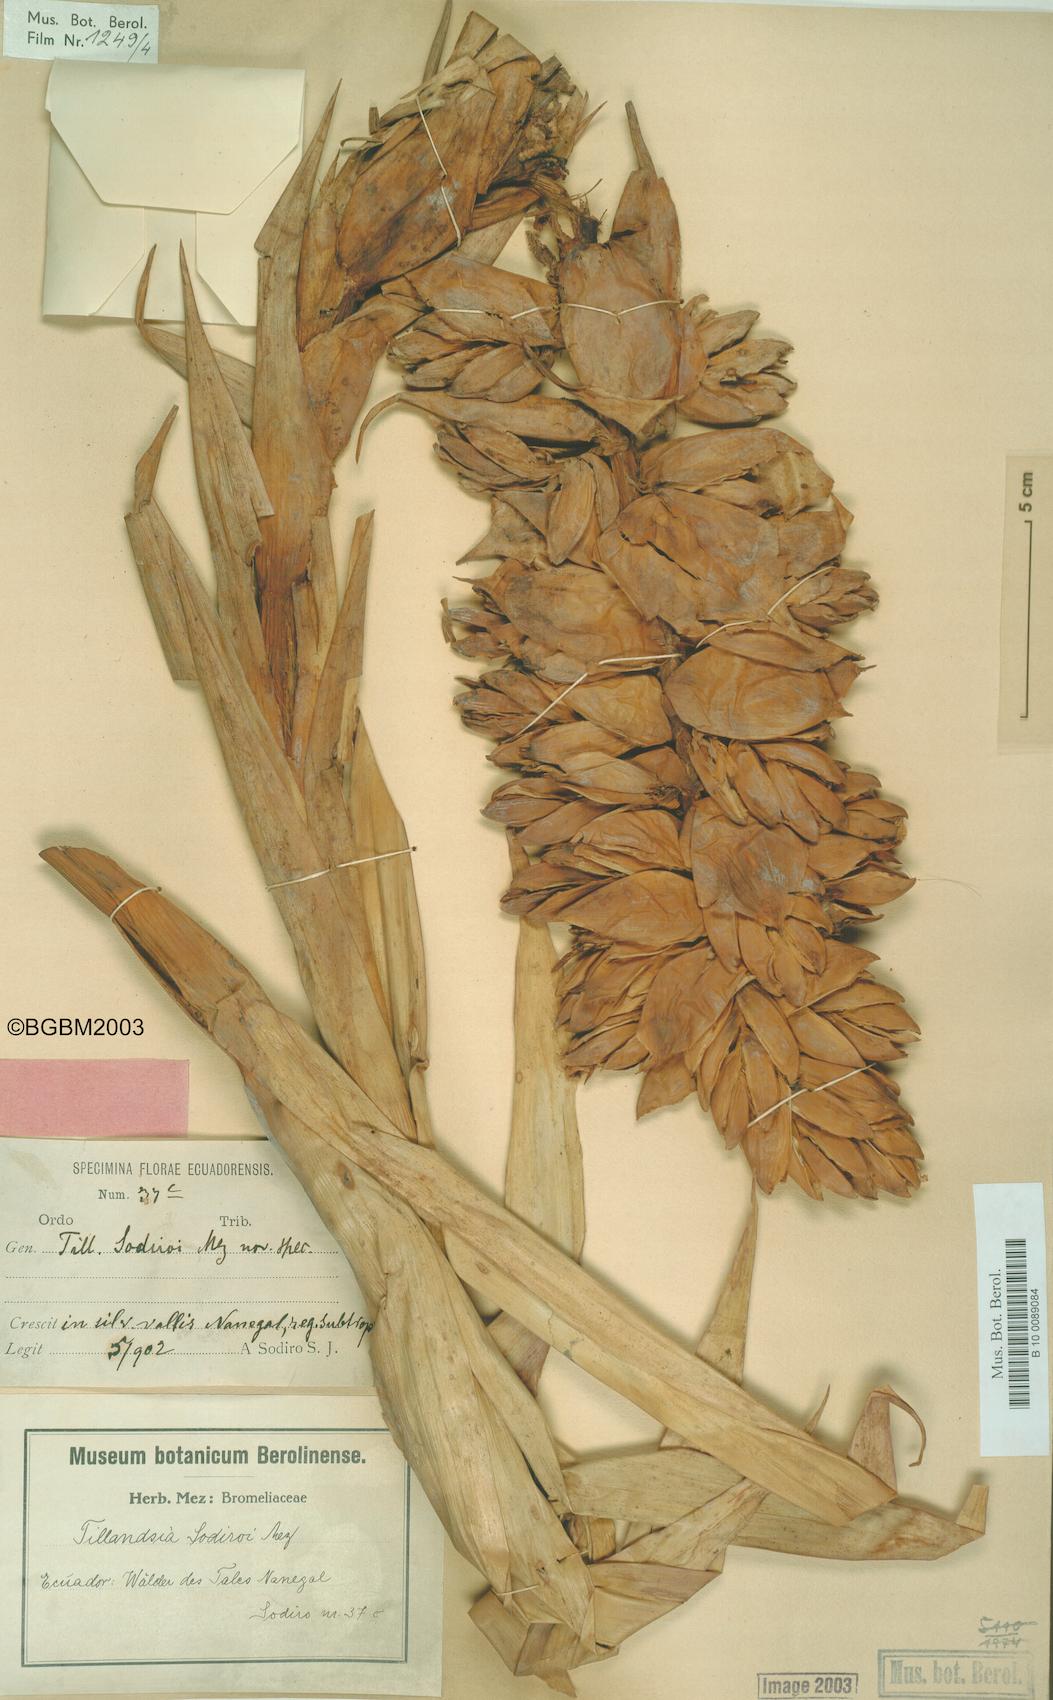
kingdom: Plantae
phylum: Tracheophyta
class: Liliopsida
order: Poales
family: Bromeliaceae
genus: Tillandsia
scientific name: Tillandsia sodiroi
